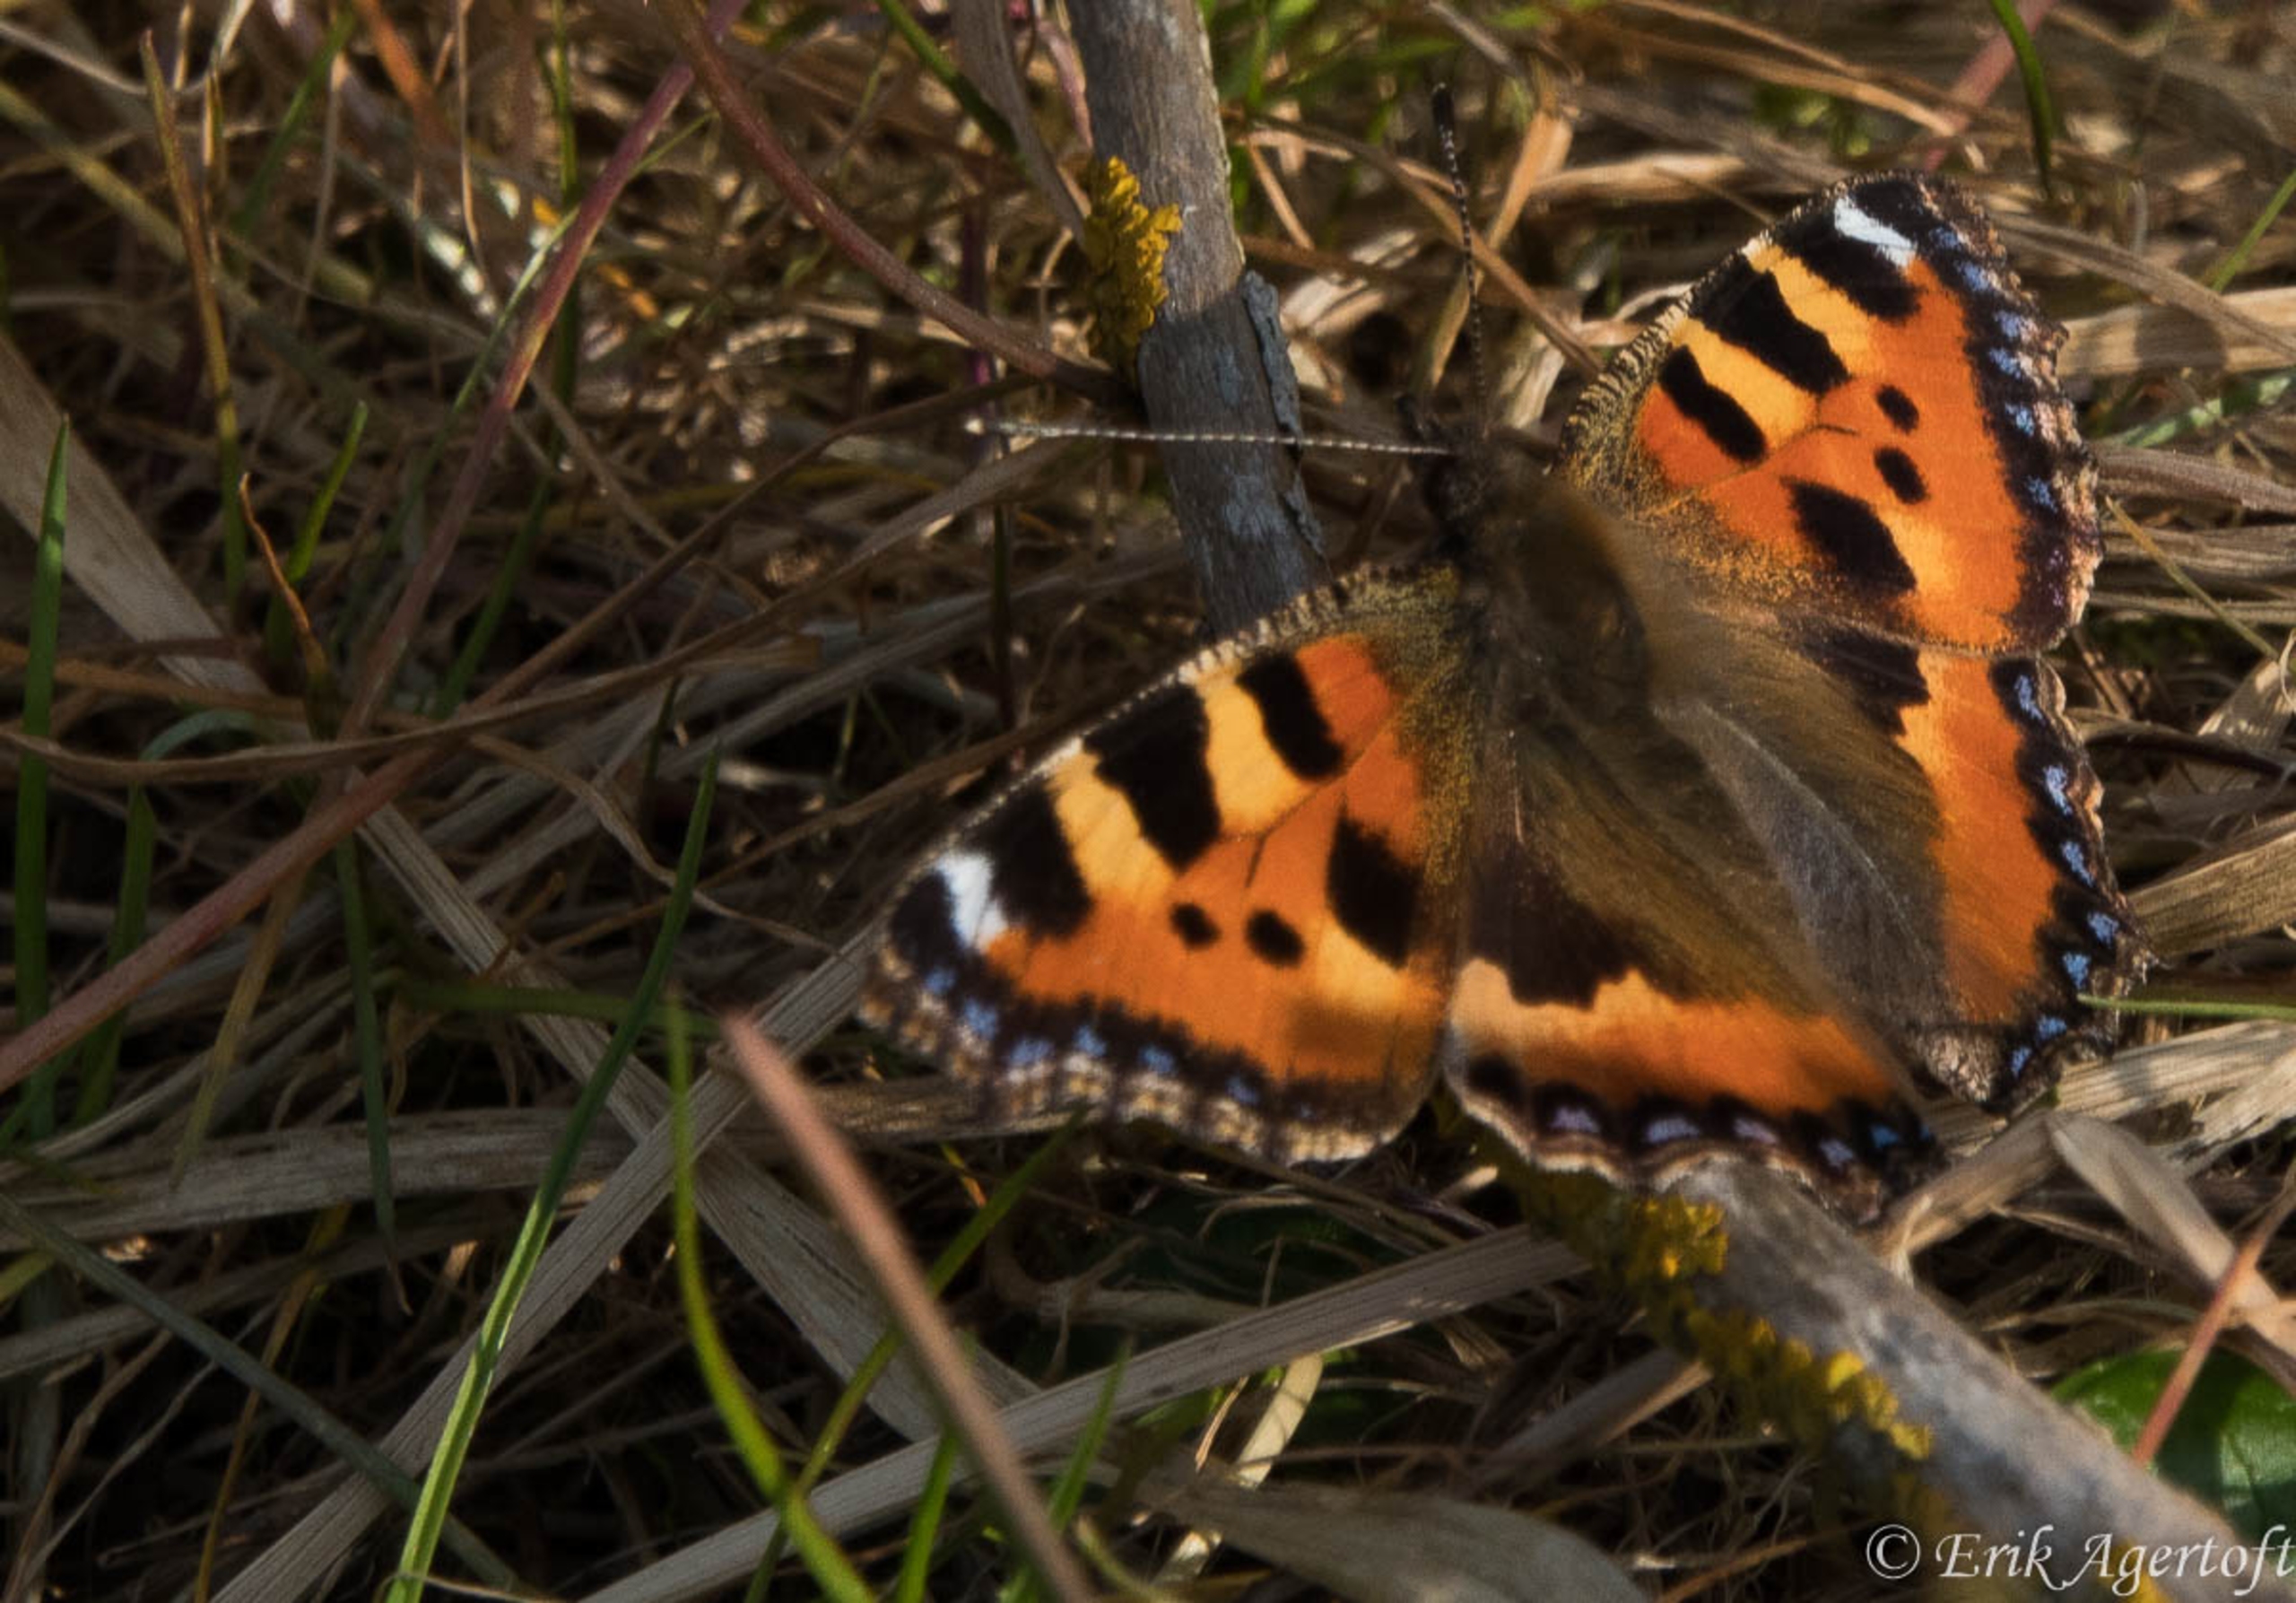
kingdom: Animalia
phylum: Arthropoda
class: Insecta
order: Lepidoptera
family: Nymphalidae
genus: Aglais
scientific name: Aglais urticae
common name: Nældens takvinge
